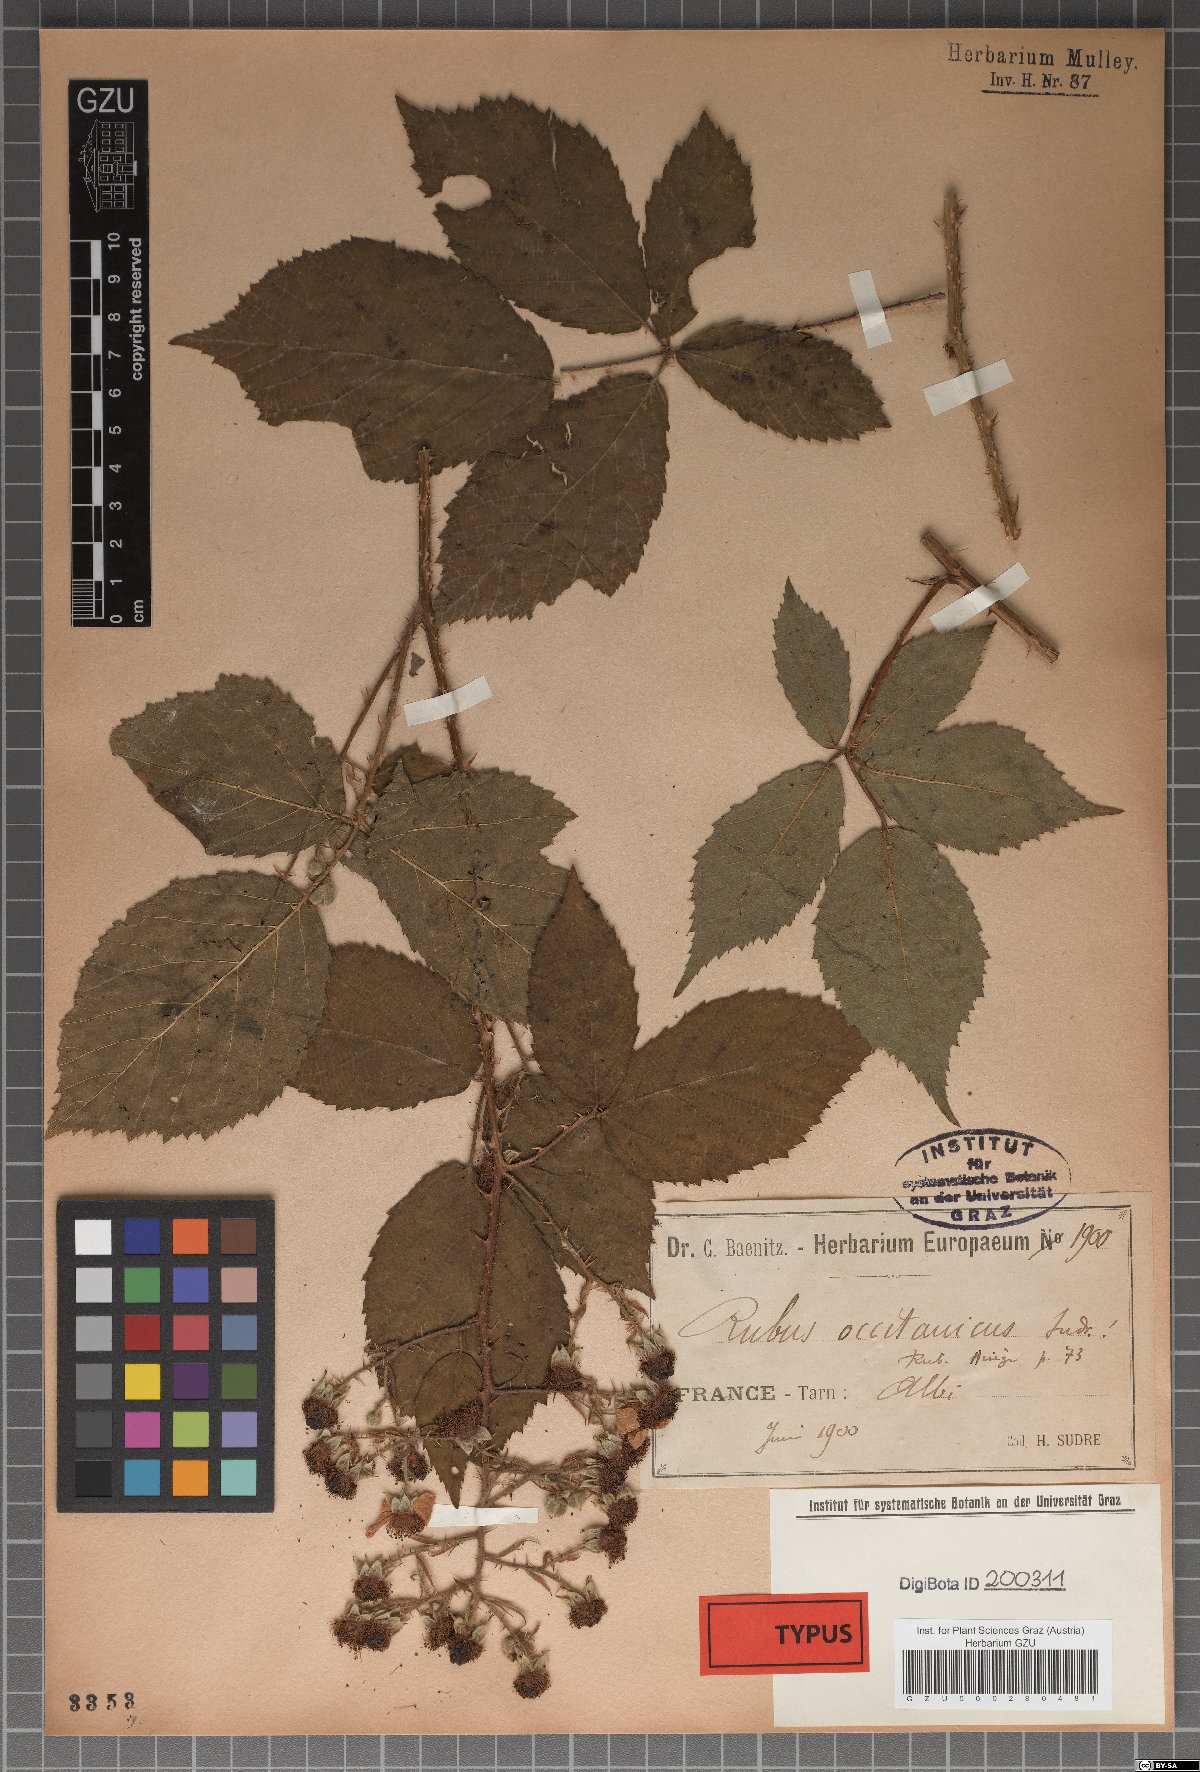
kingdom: Plantae
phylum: Tracheophyta
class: Magnoliopsida
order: Rosales
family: Rosaceae
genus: Rubus
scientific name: Rubus radulicaulis
